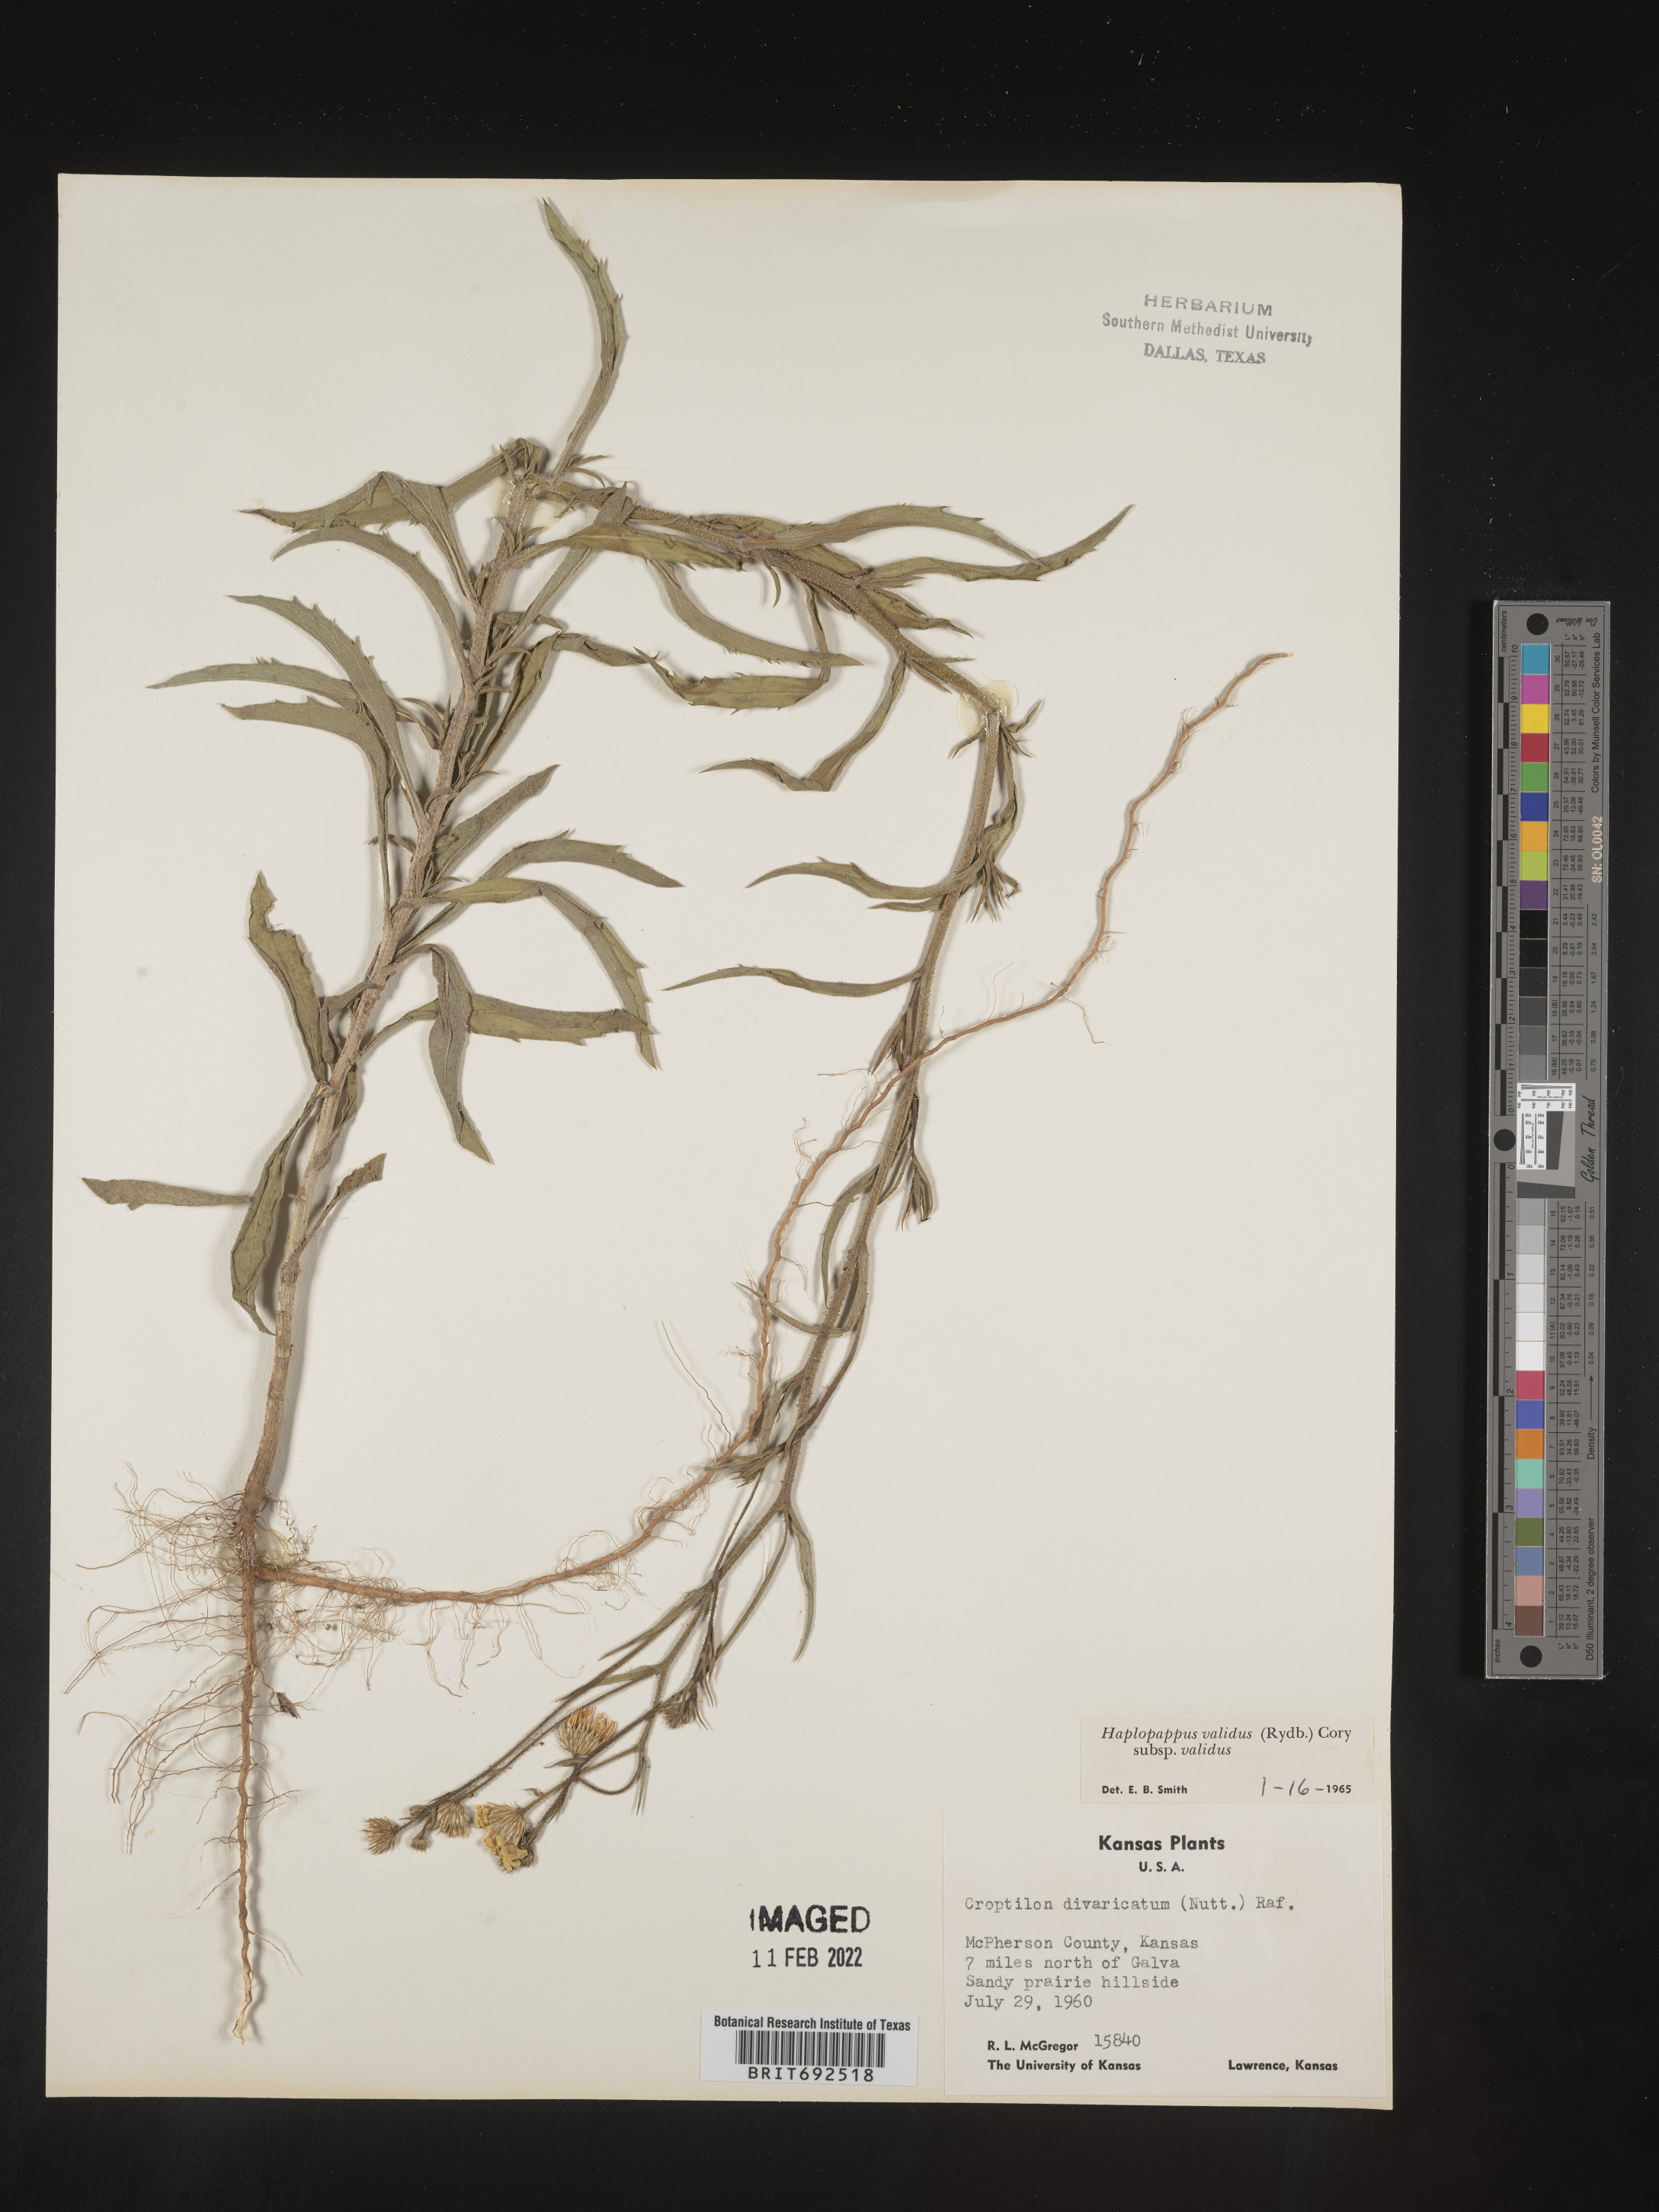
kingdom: Plantae
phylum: Tracheophyta
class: Magnoliopsida
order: Asterales
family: Asteraceae
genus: Croptilon
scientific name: Croptilon hookerianum
